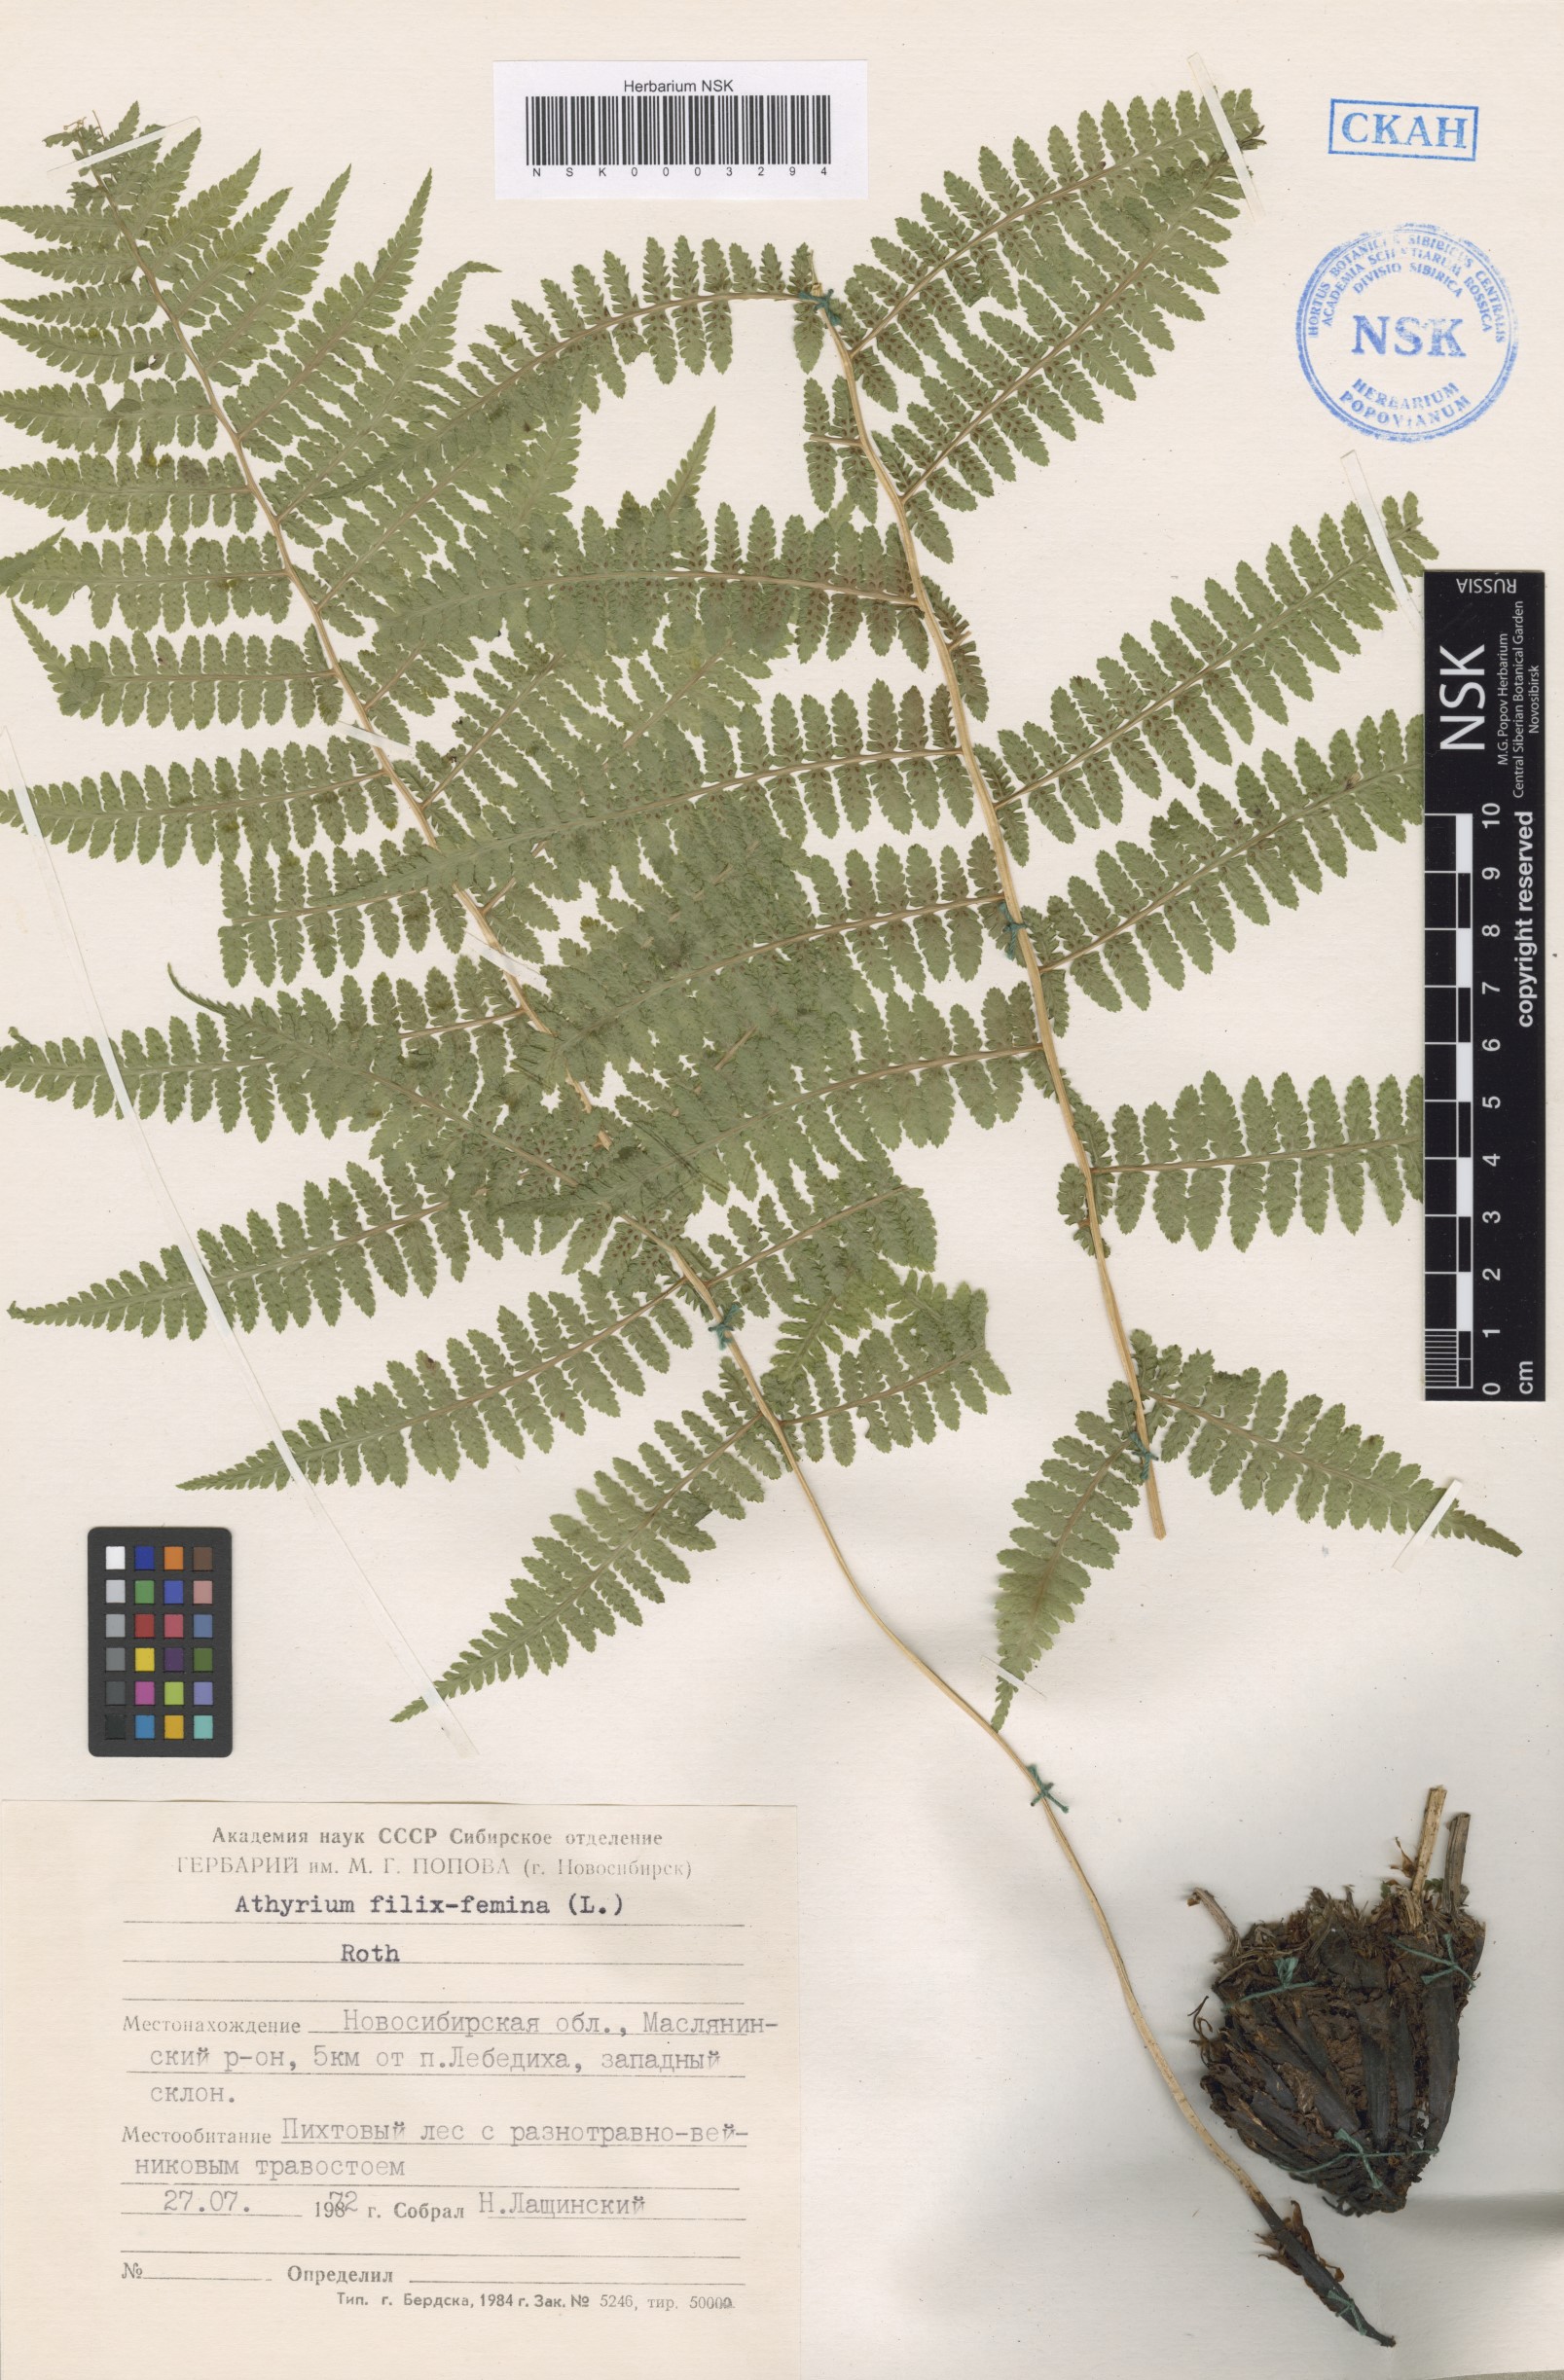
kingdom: Plantae
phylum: Tracheophyta
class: Polypodiopsida
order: Polypodiales
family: Athyriaceae
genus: Athyrium
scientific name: Athyrium filix-femina
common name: Lady fern
